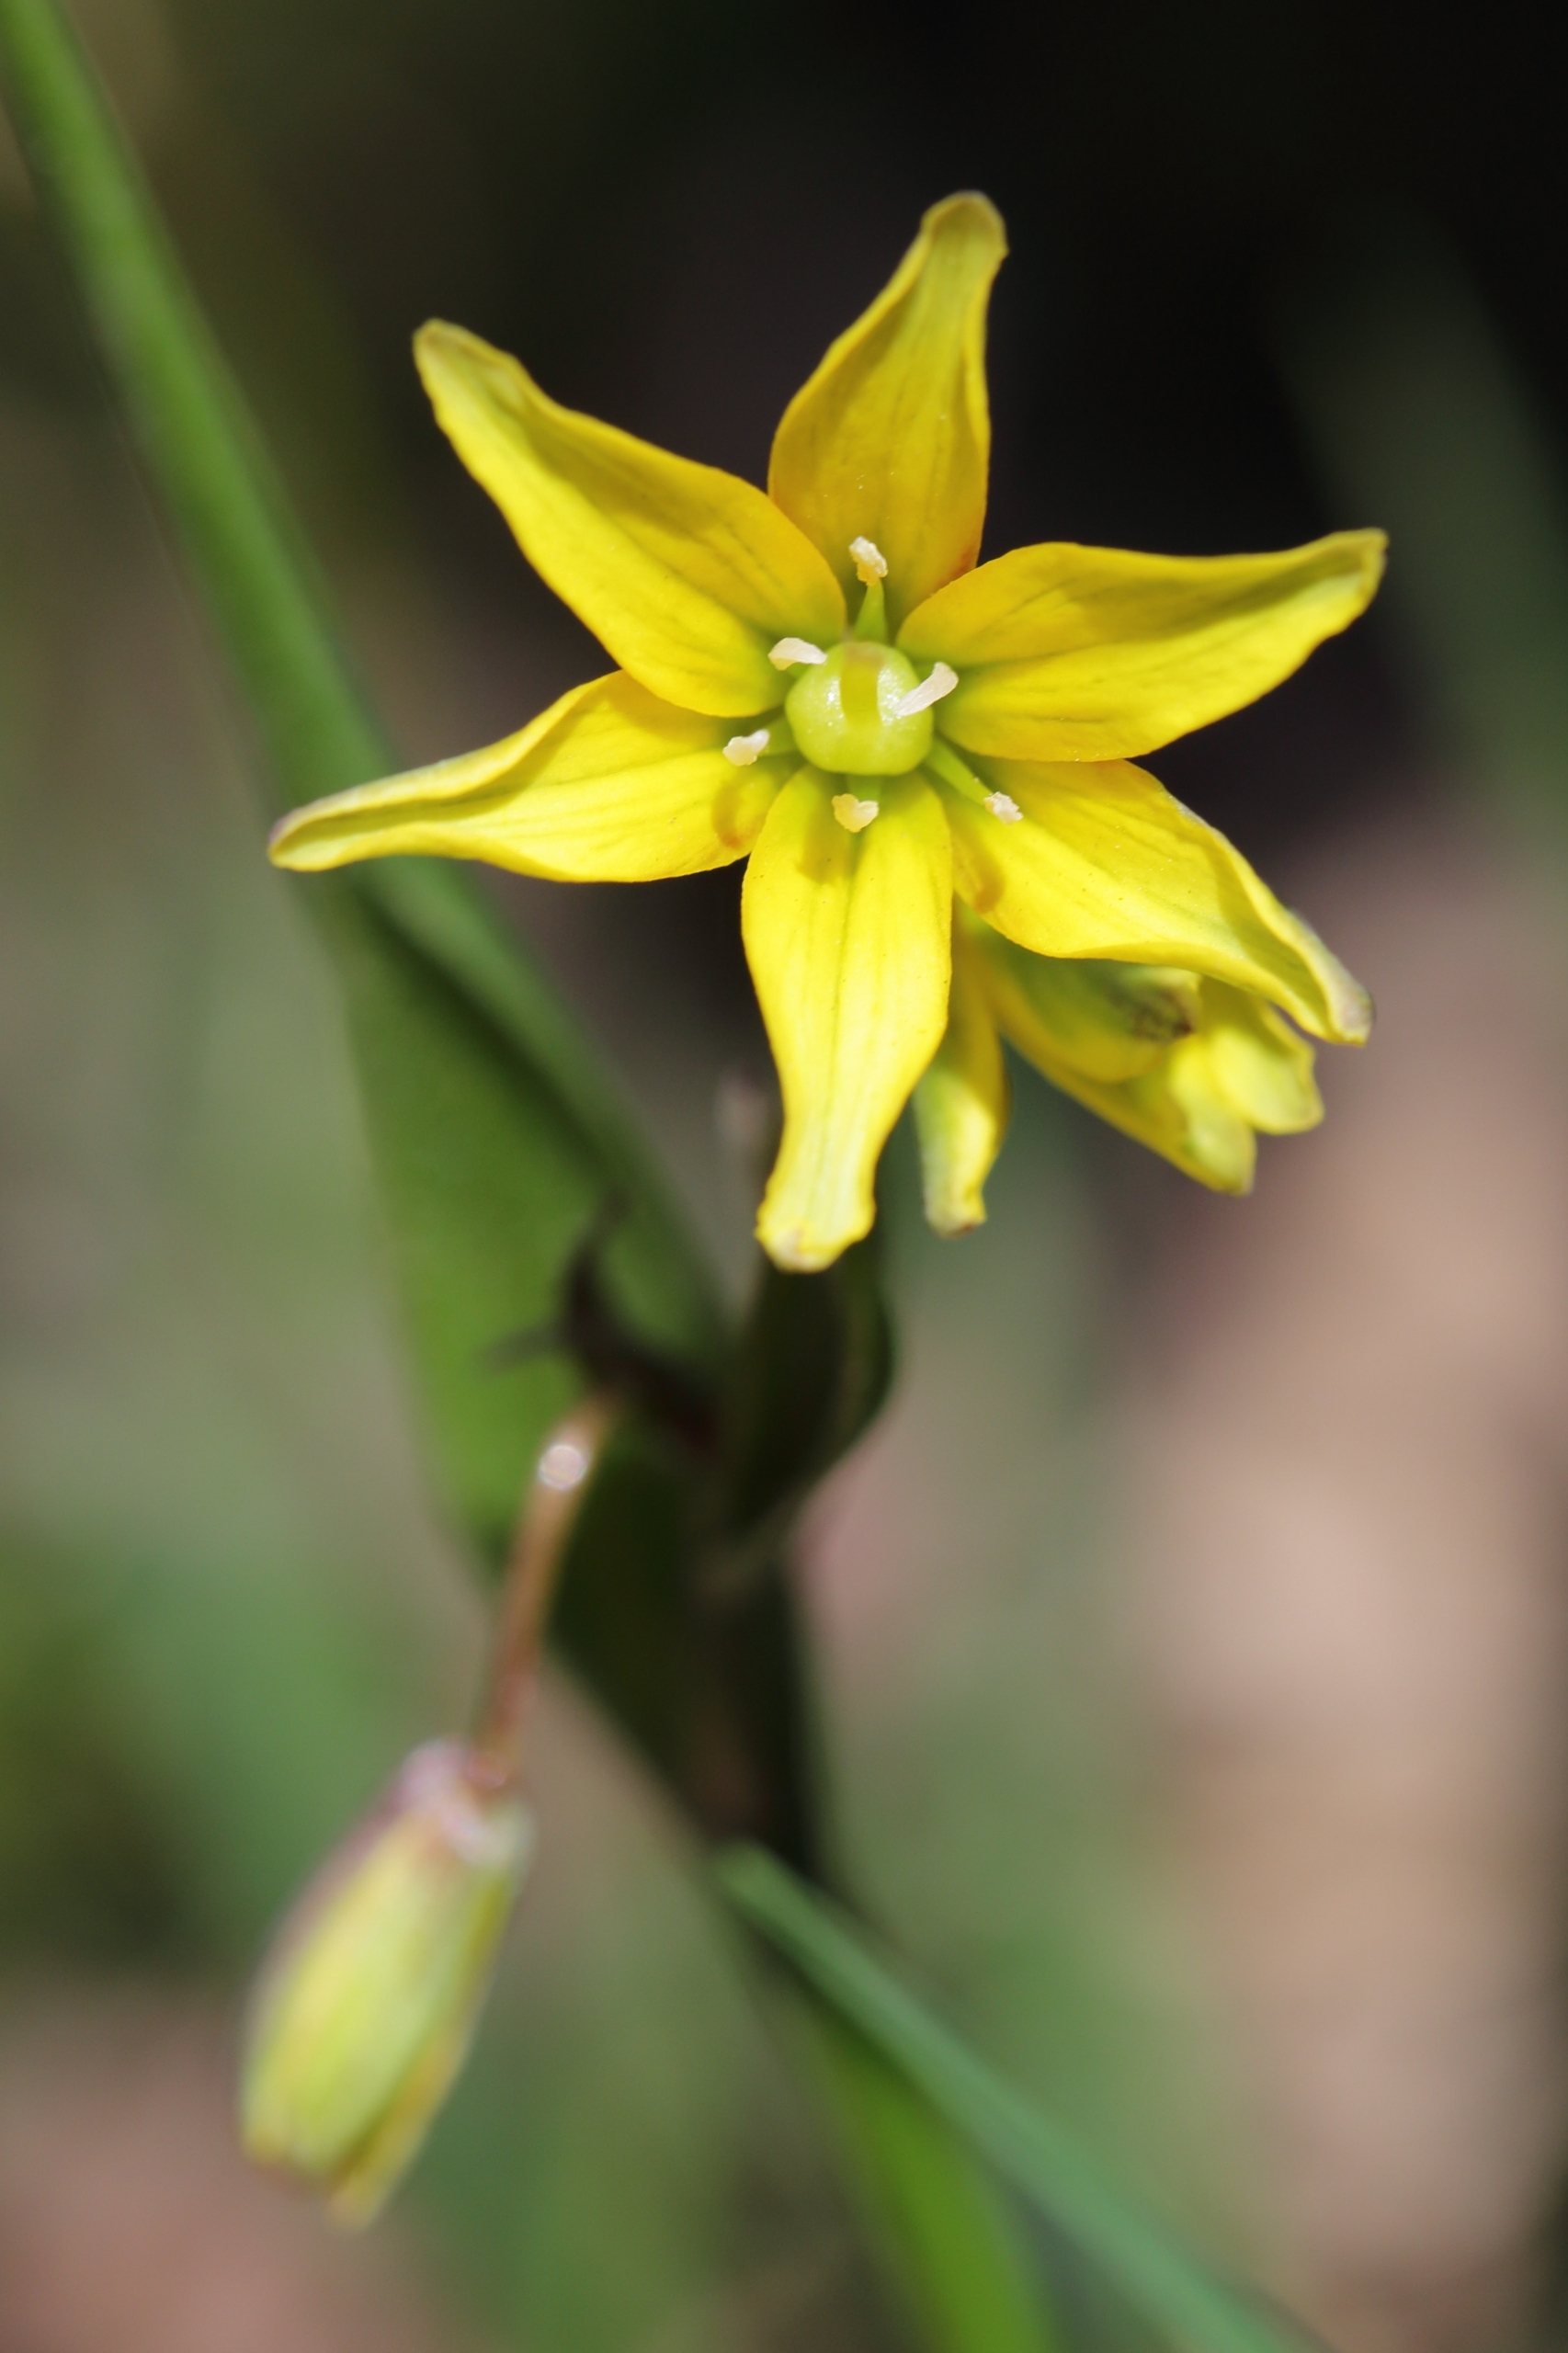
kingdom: Plantae
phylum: Tracheophyta
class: Liliopsida
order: Liliales
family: Liliaceae
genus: Gagea
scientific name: Gagea spathacea
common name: Hylster-guldstjerne
